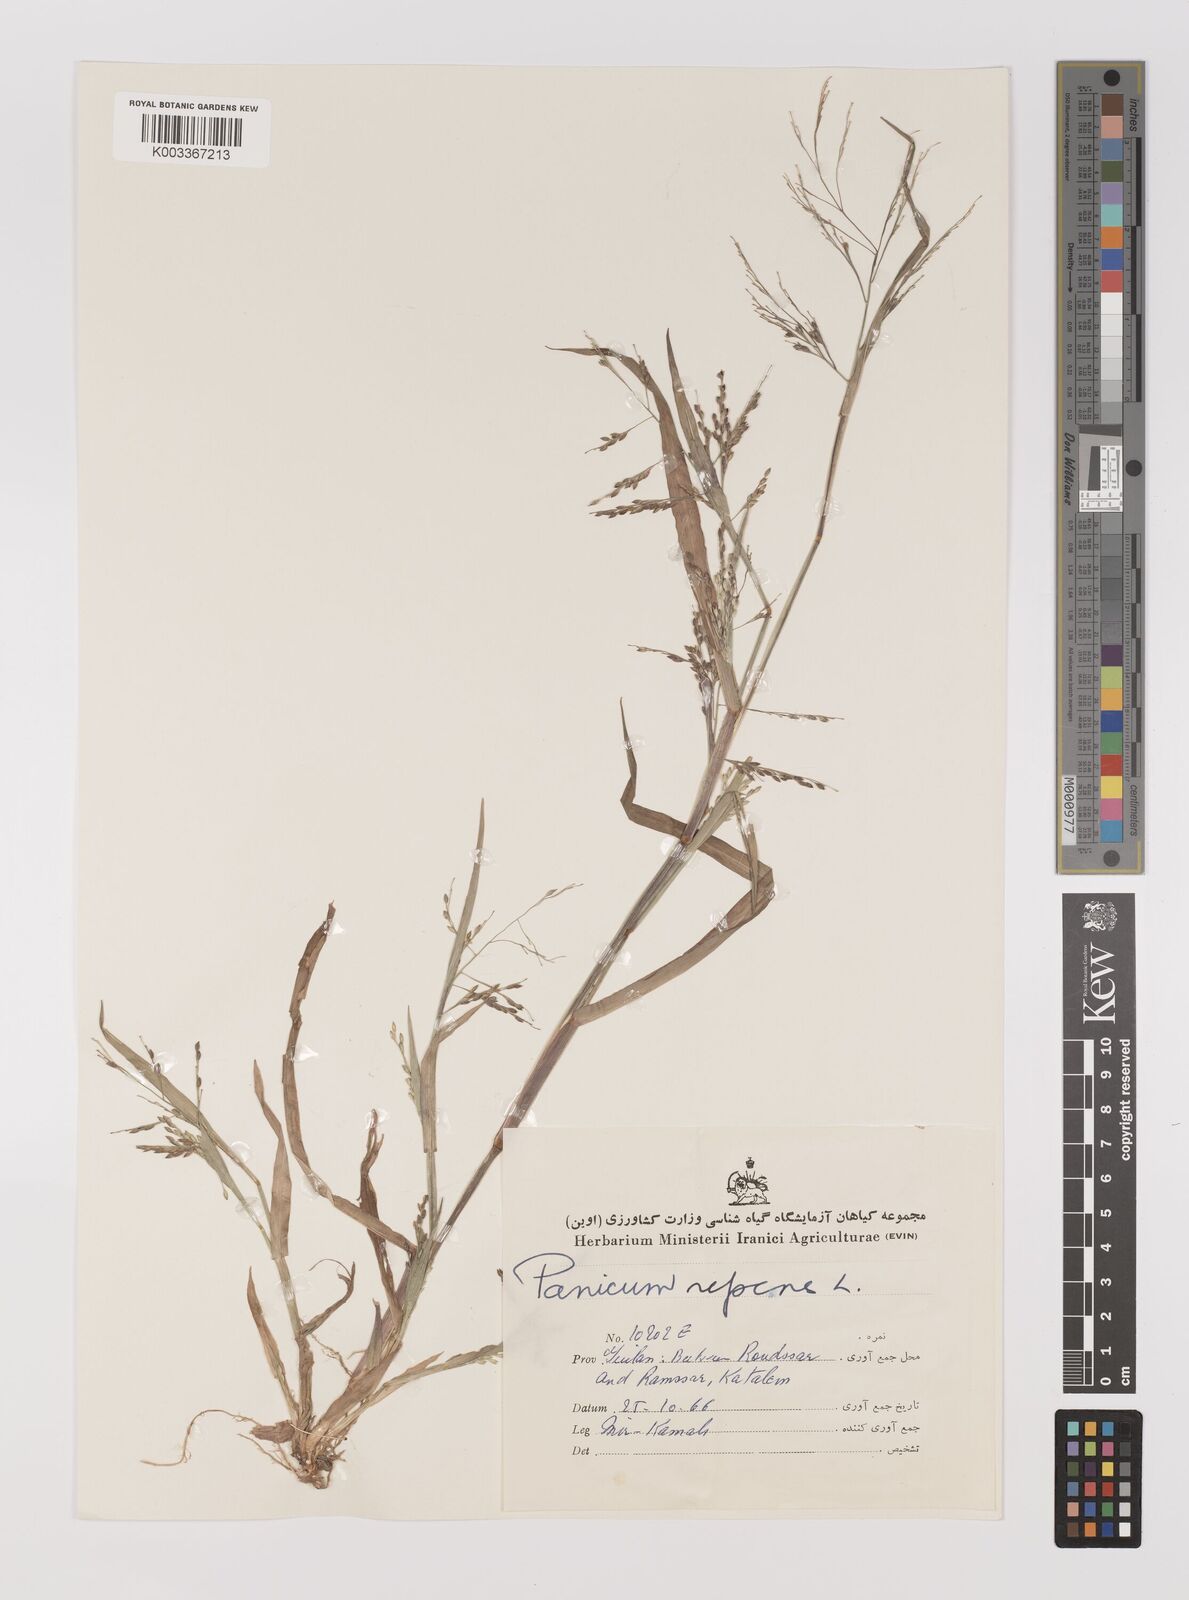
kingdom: Plantae
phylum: Tracheophyta
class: Liliopsida
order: Poales
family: Poaceae
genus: Panicum
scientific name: Panicum repens
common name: Torpedo grass
